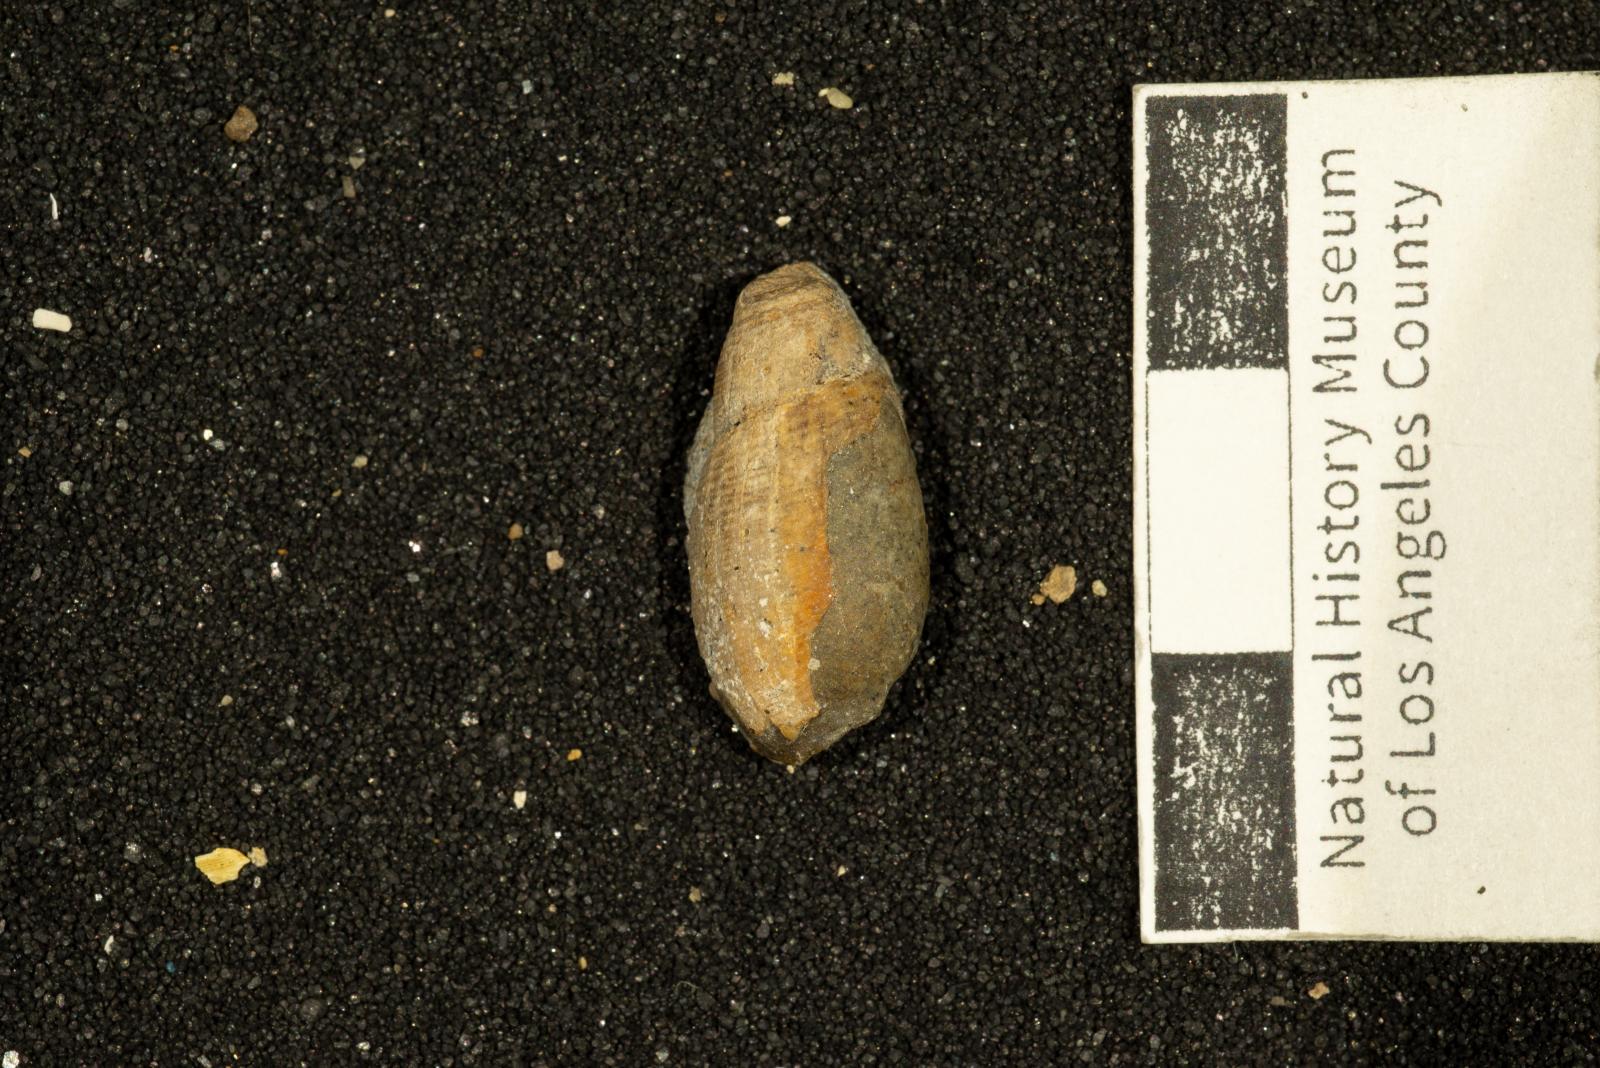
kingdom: Animalia
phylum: Mollusca
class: Gastropoda
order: Cephalaspidea
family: Acteonidae
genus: Nonacteonina
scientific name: Nonacteonina
